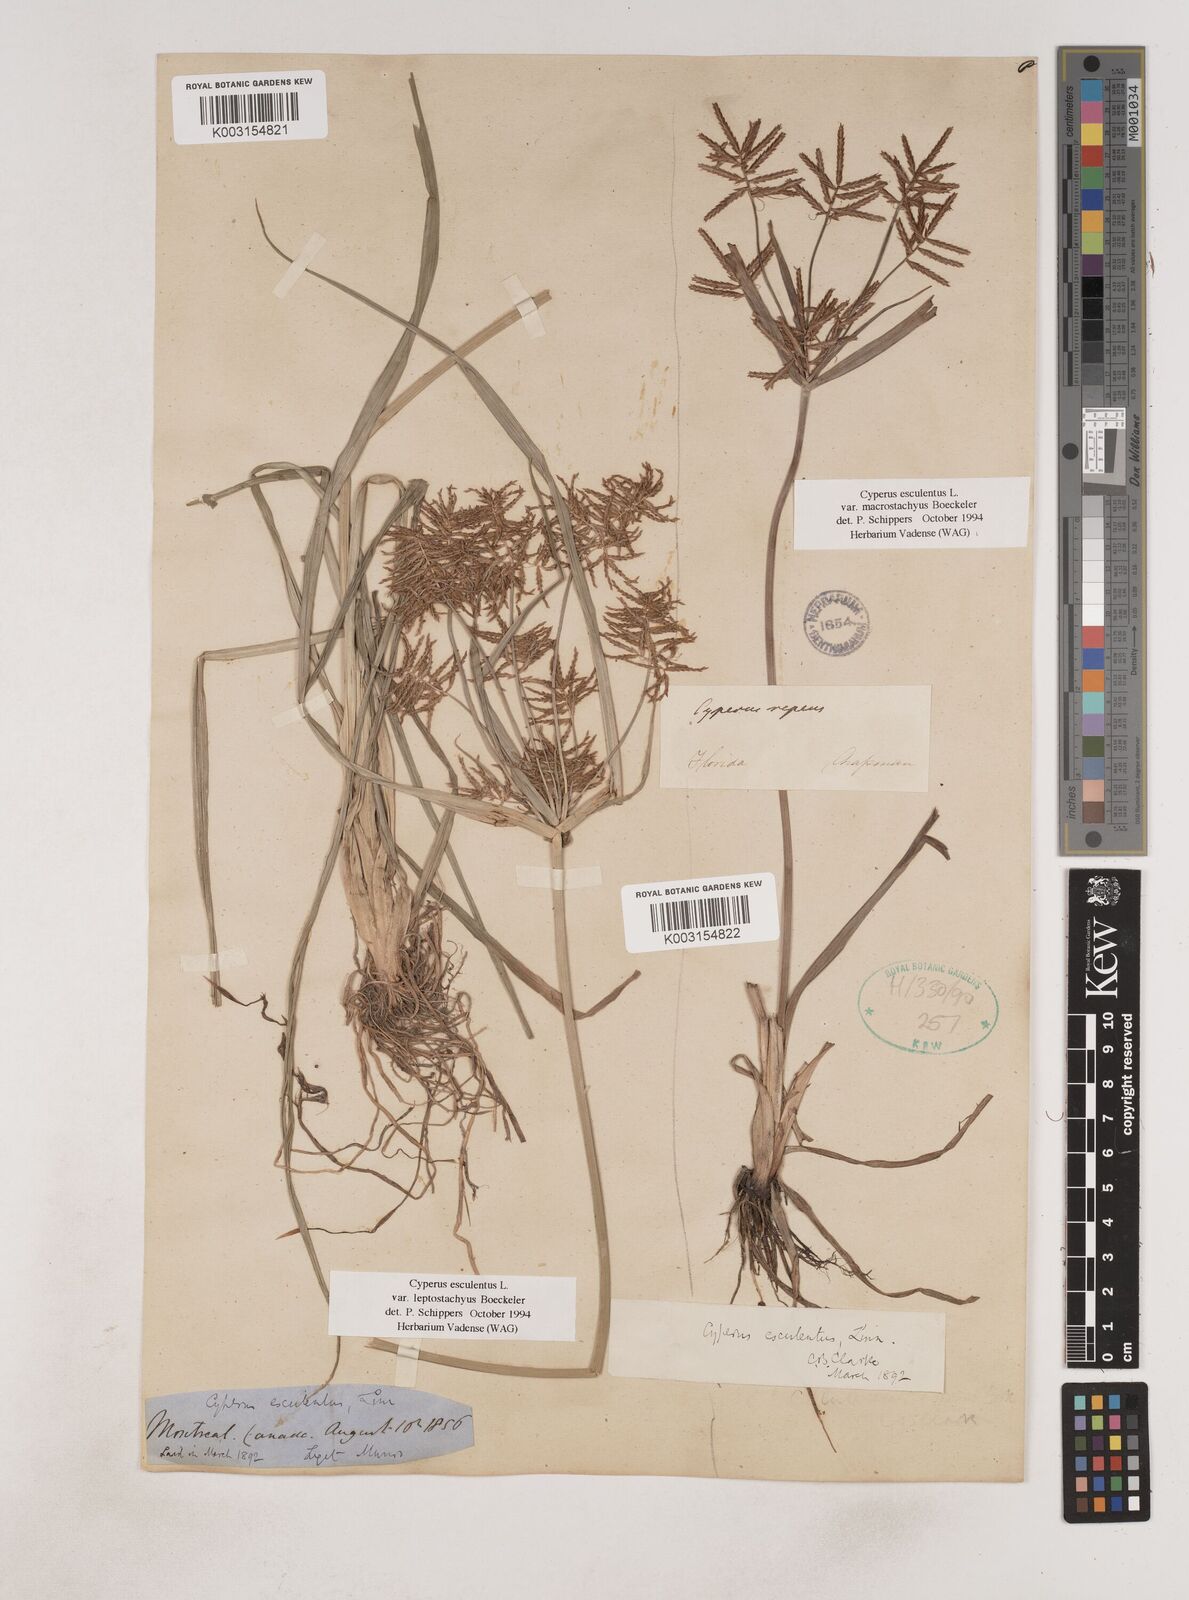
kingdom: Plantae
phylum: Tracheophyta
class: Liliopsida
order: Poales
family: Cyperaceae
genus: Cyperus
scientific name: Cyperus esculentus
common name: Yellow nutsedge
